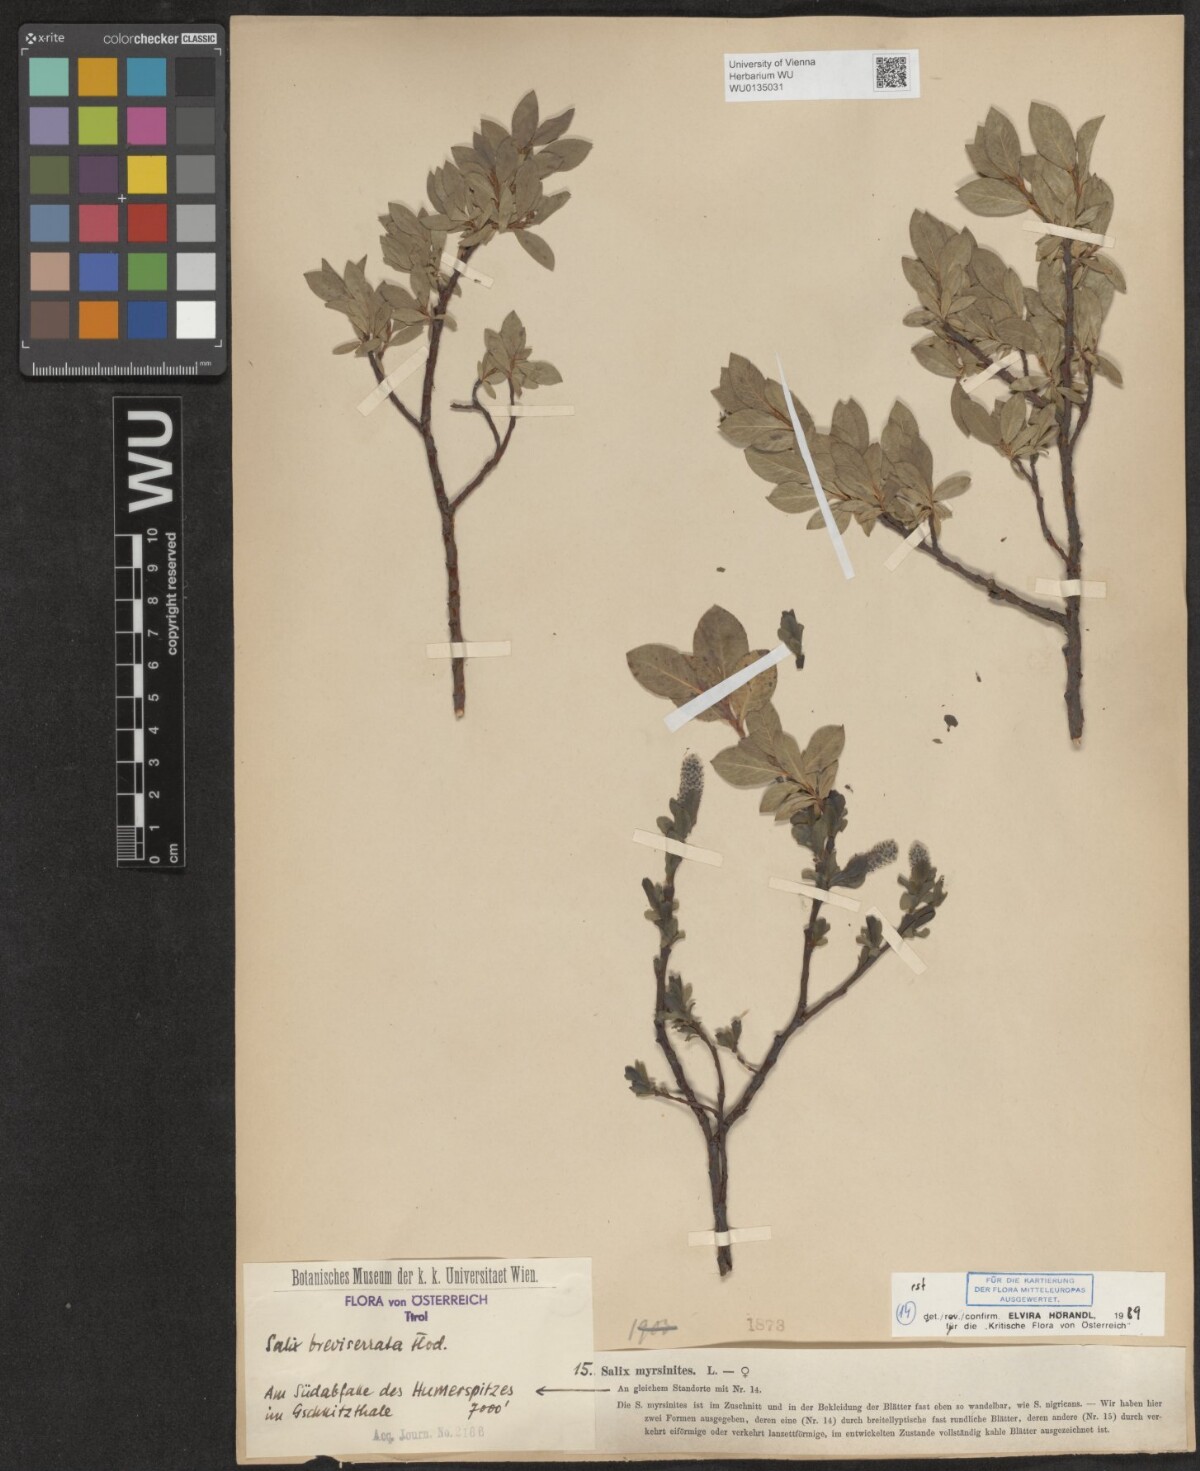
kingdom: Plantae
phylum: Tracheophyta
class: Magnoliopsida
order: Malpighiales
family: Salicaceae
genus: Salix
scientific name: Salix breviserrata
